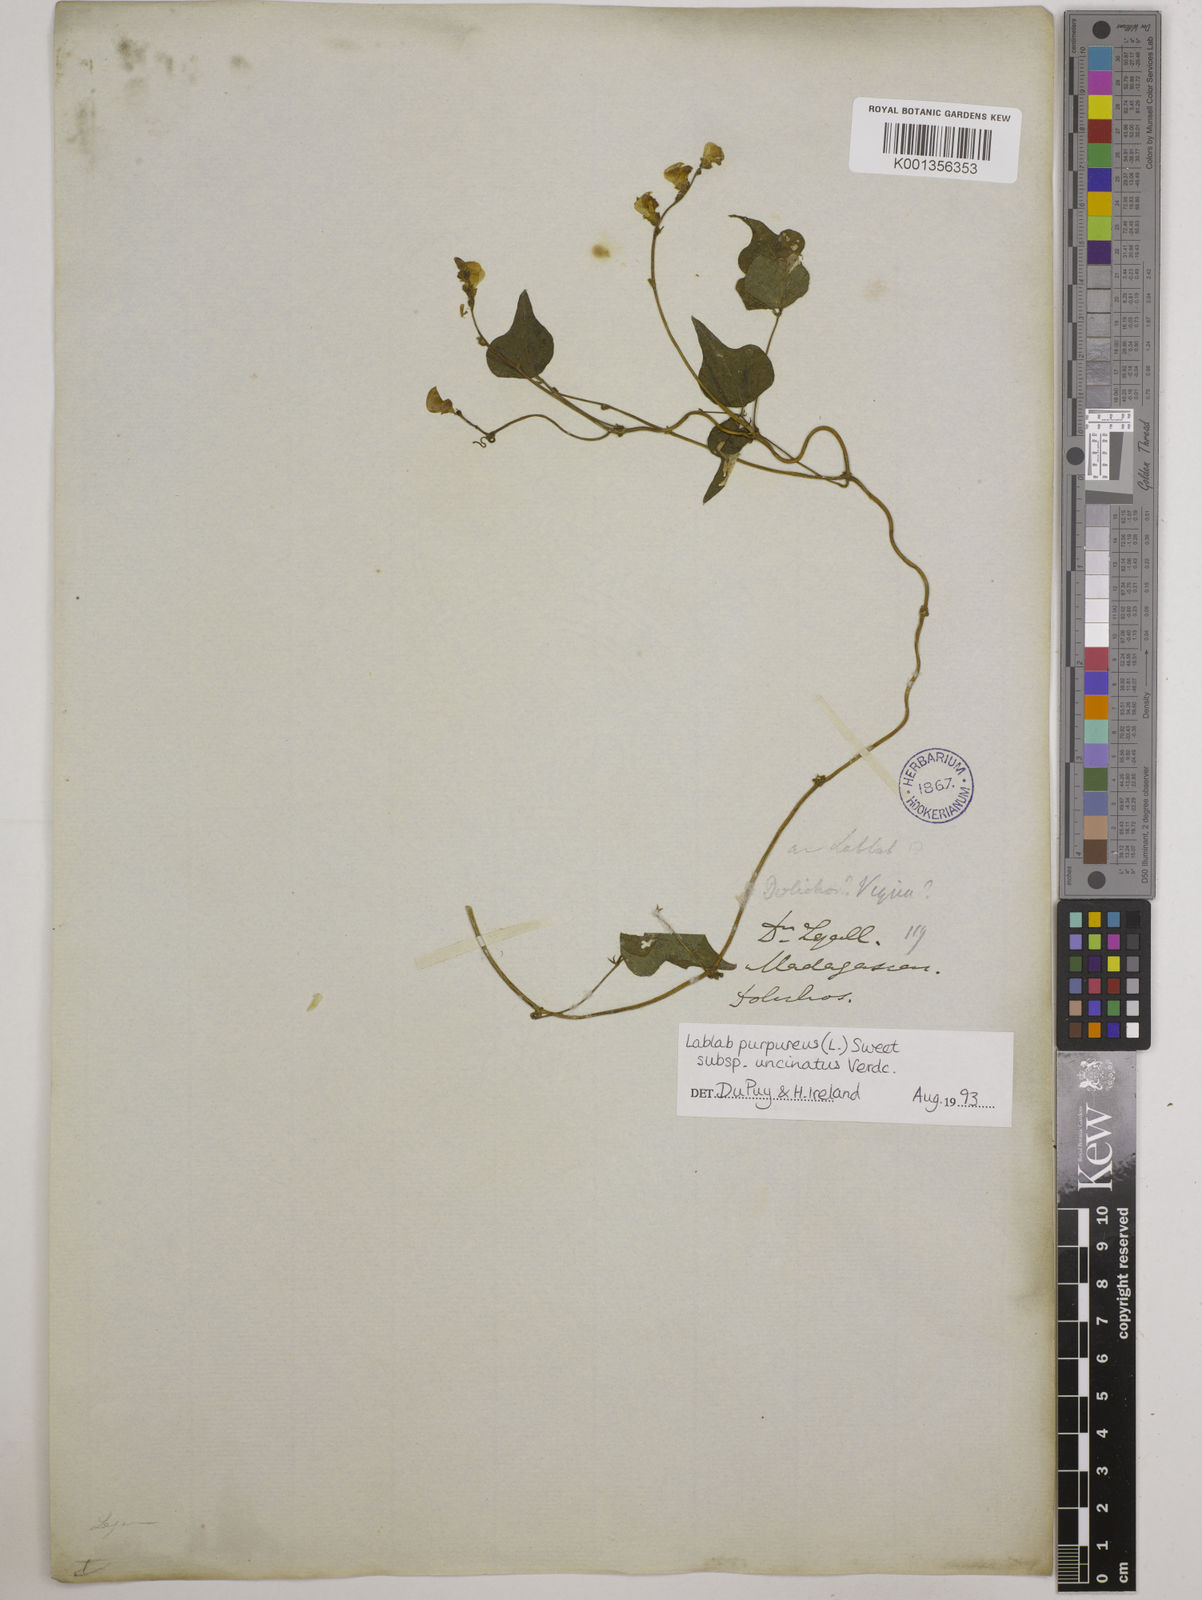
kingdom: Plantae
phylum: Tracheophyta
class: Magnoliopsida
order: Fabales
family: Fabaceae
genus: Lablab
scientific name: Lablab purpureus
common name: Lablab-bean
